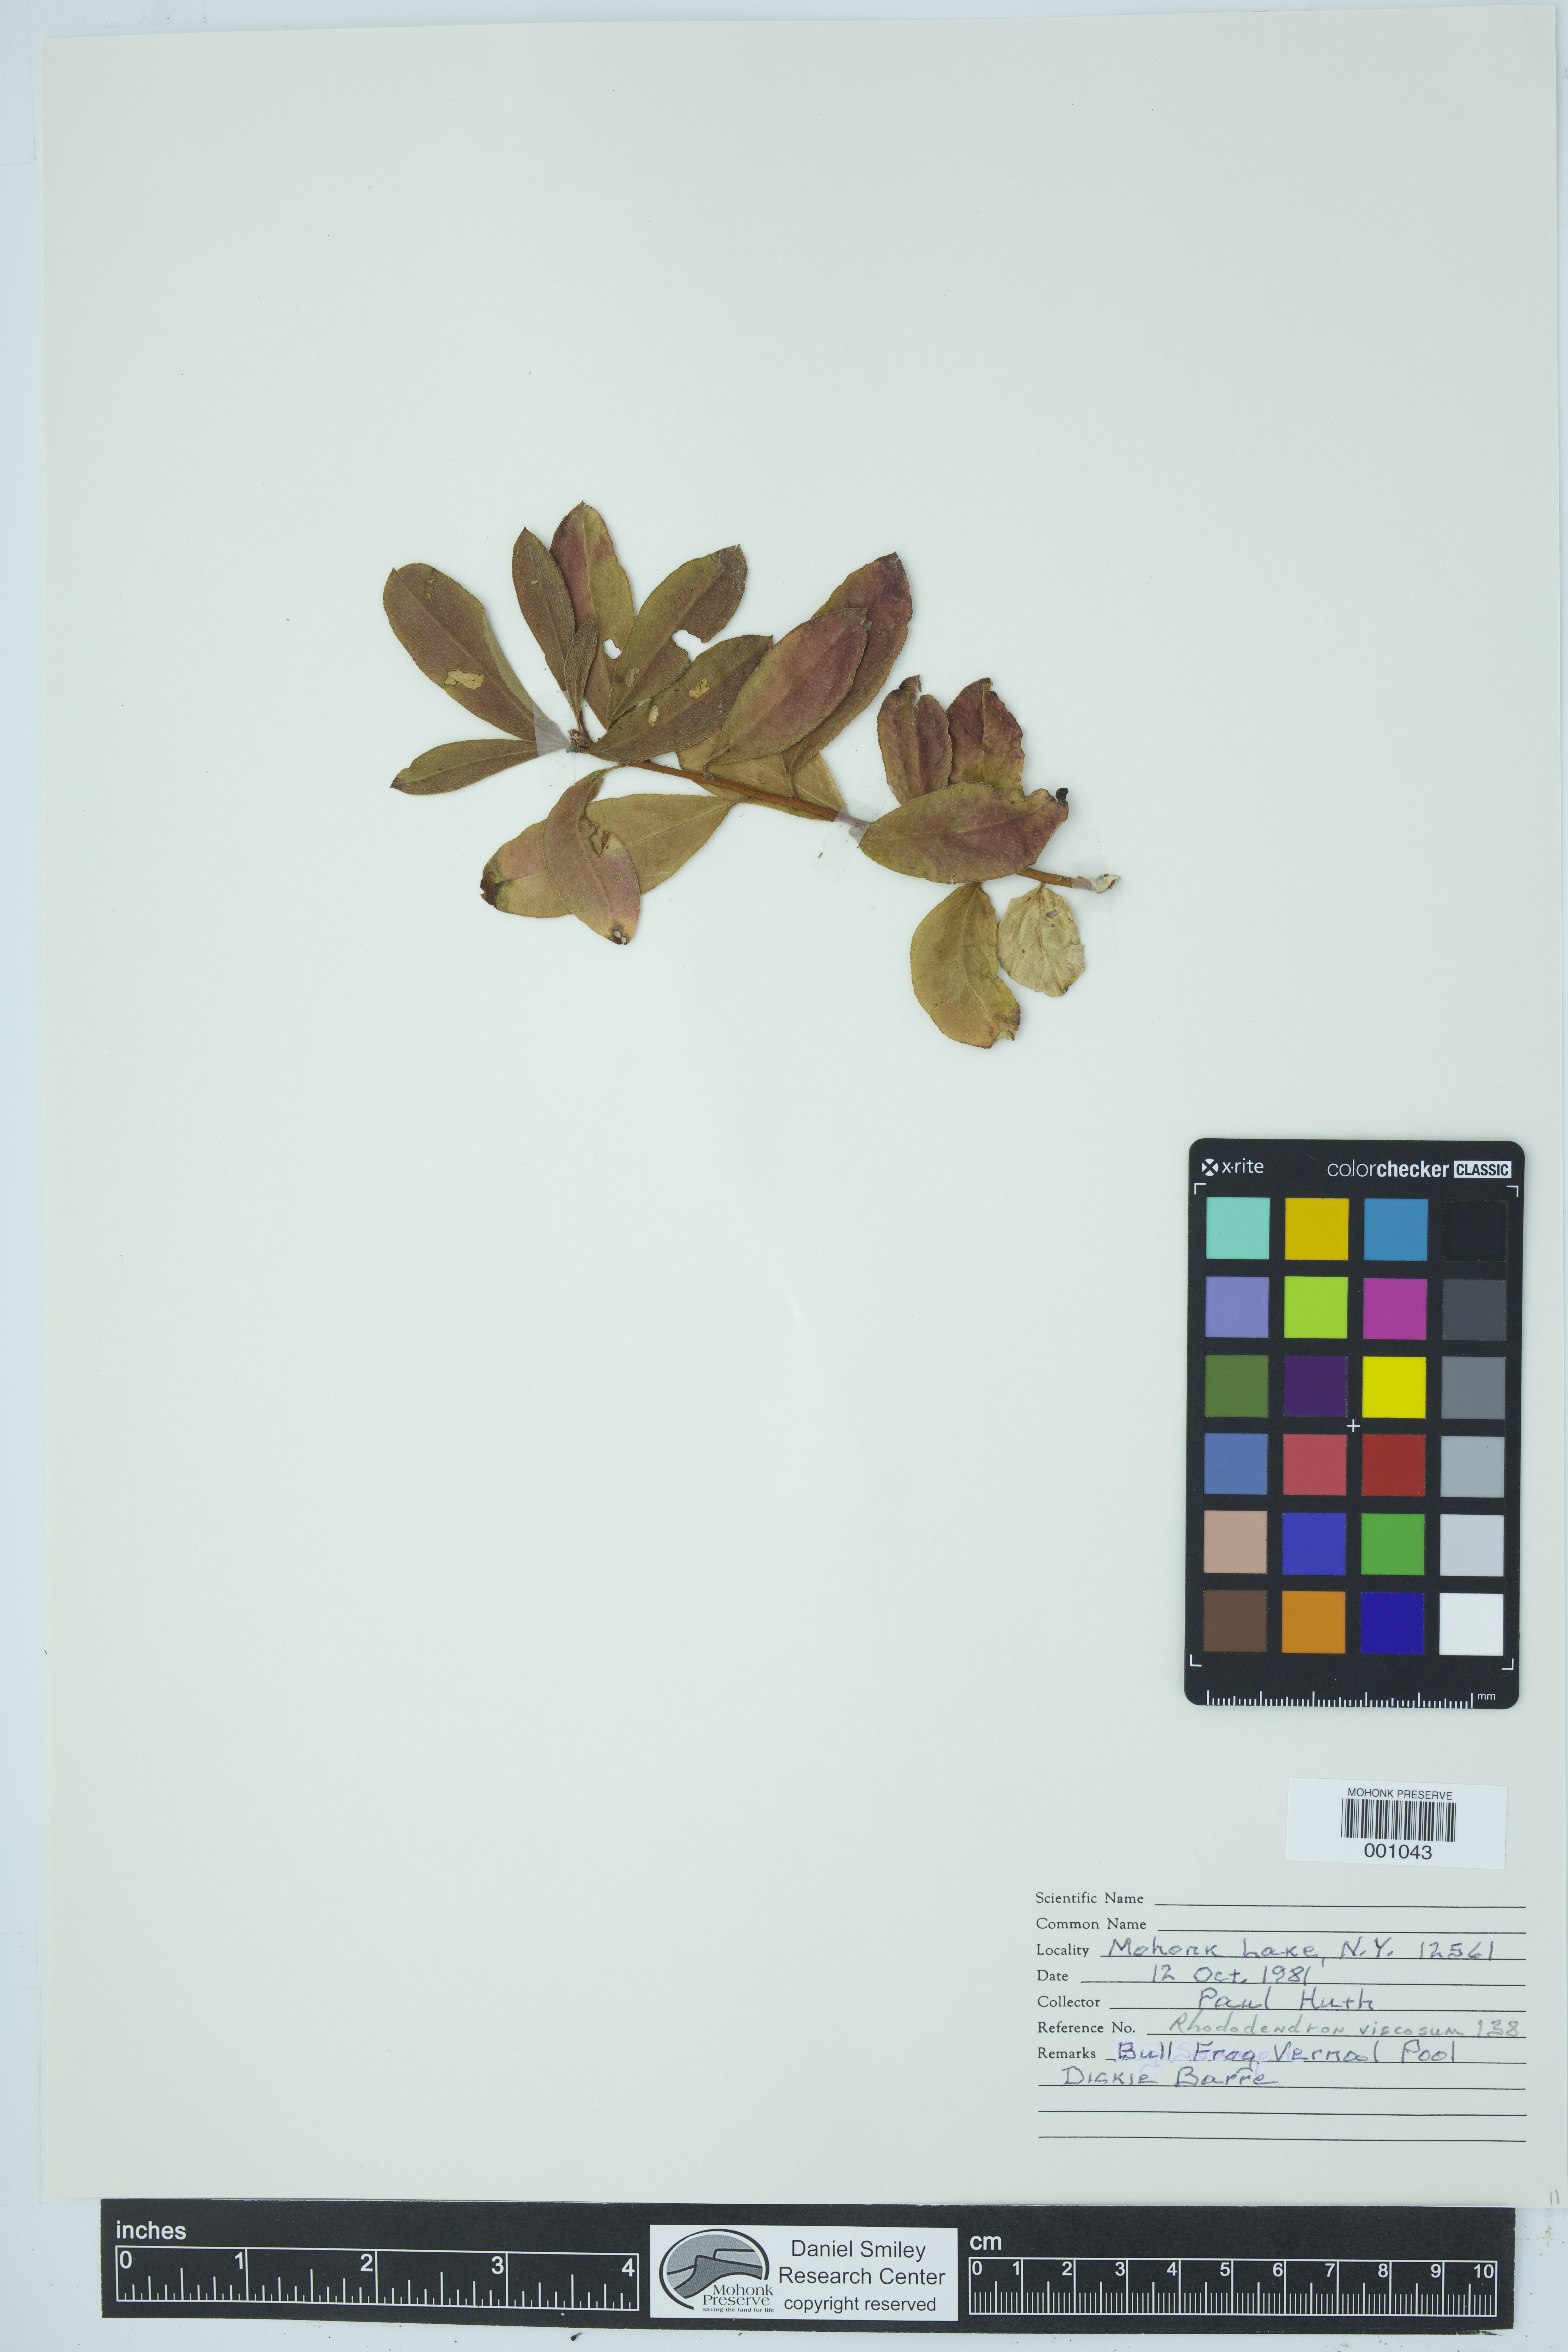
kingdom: Plantae
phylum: Tracheophyta
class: Magnoliopsida
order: Ericales
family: Ericaceae
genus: Rhododendron
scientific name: Rhododendron viscosum
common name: Clammy azalea
